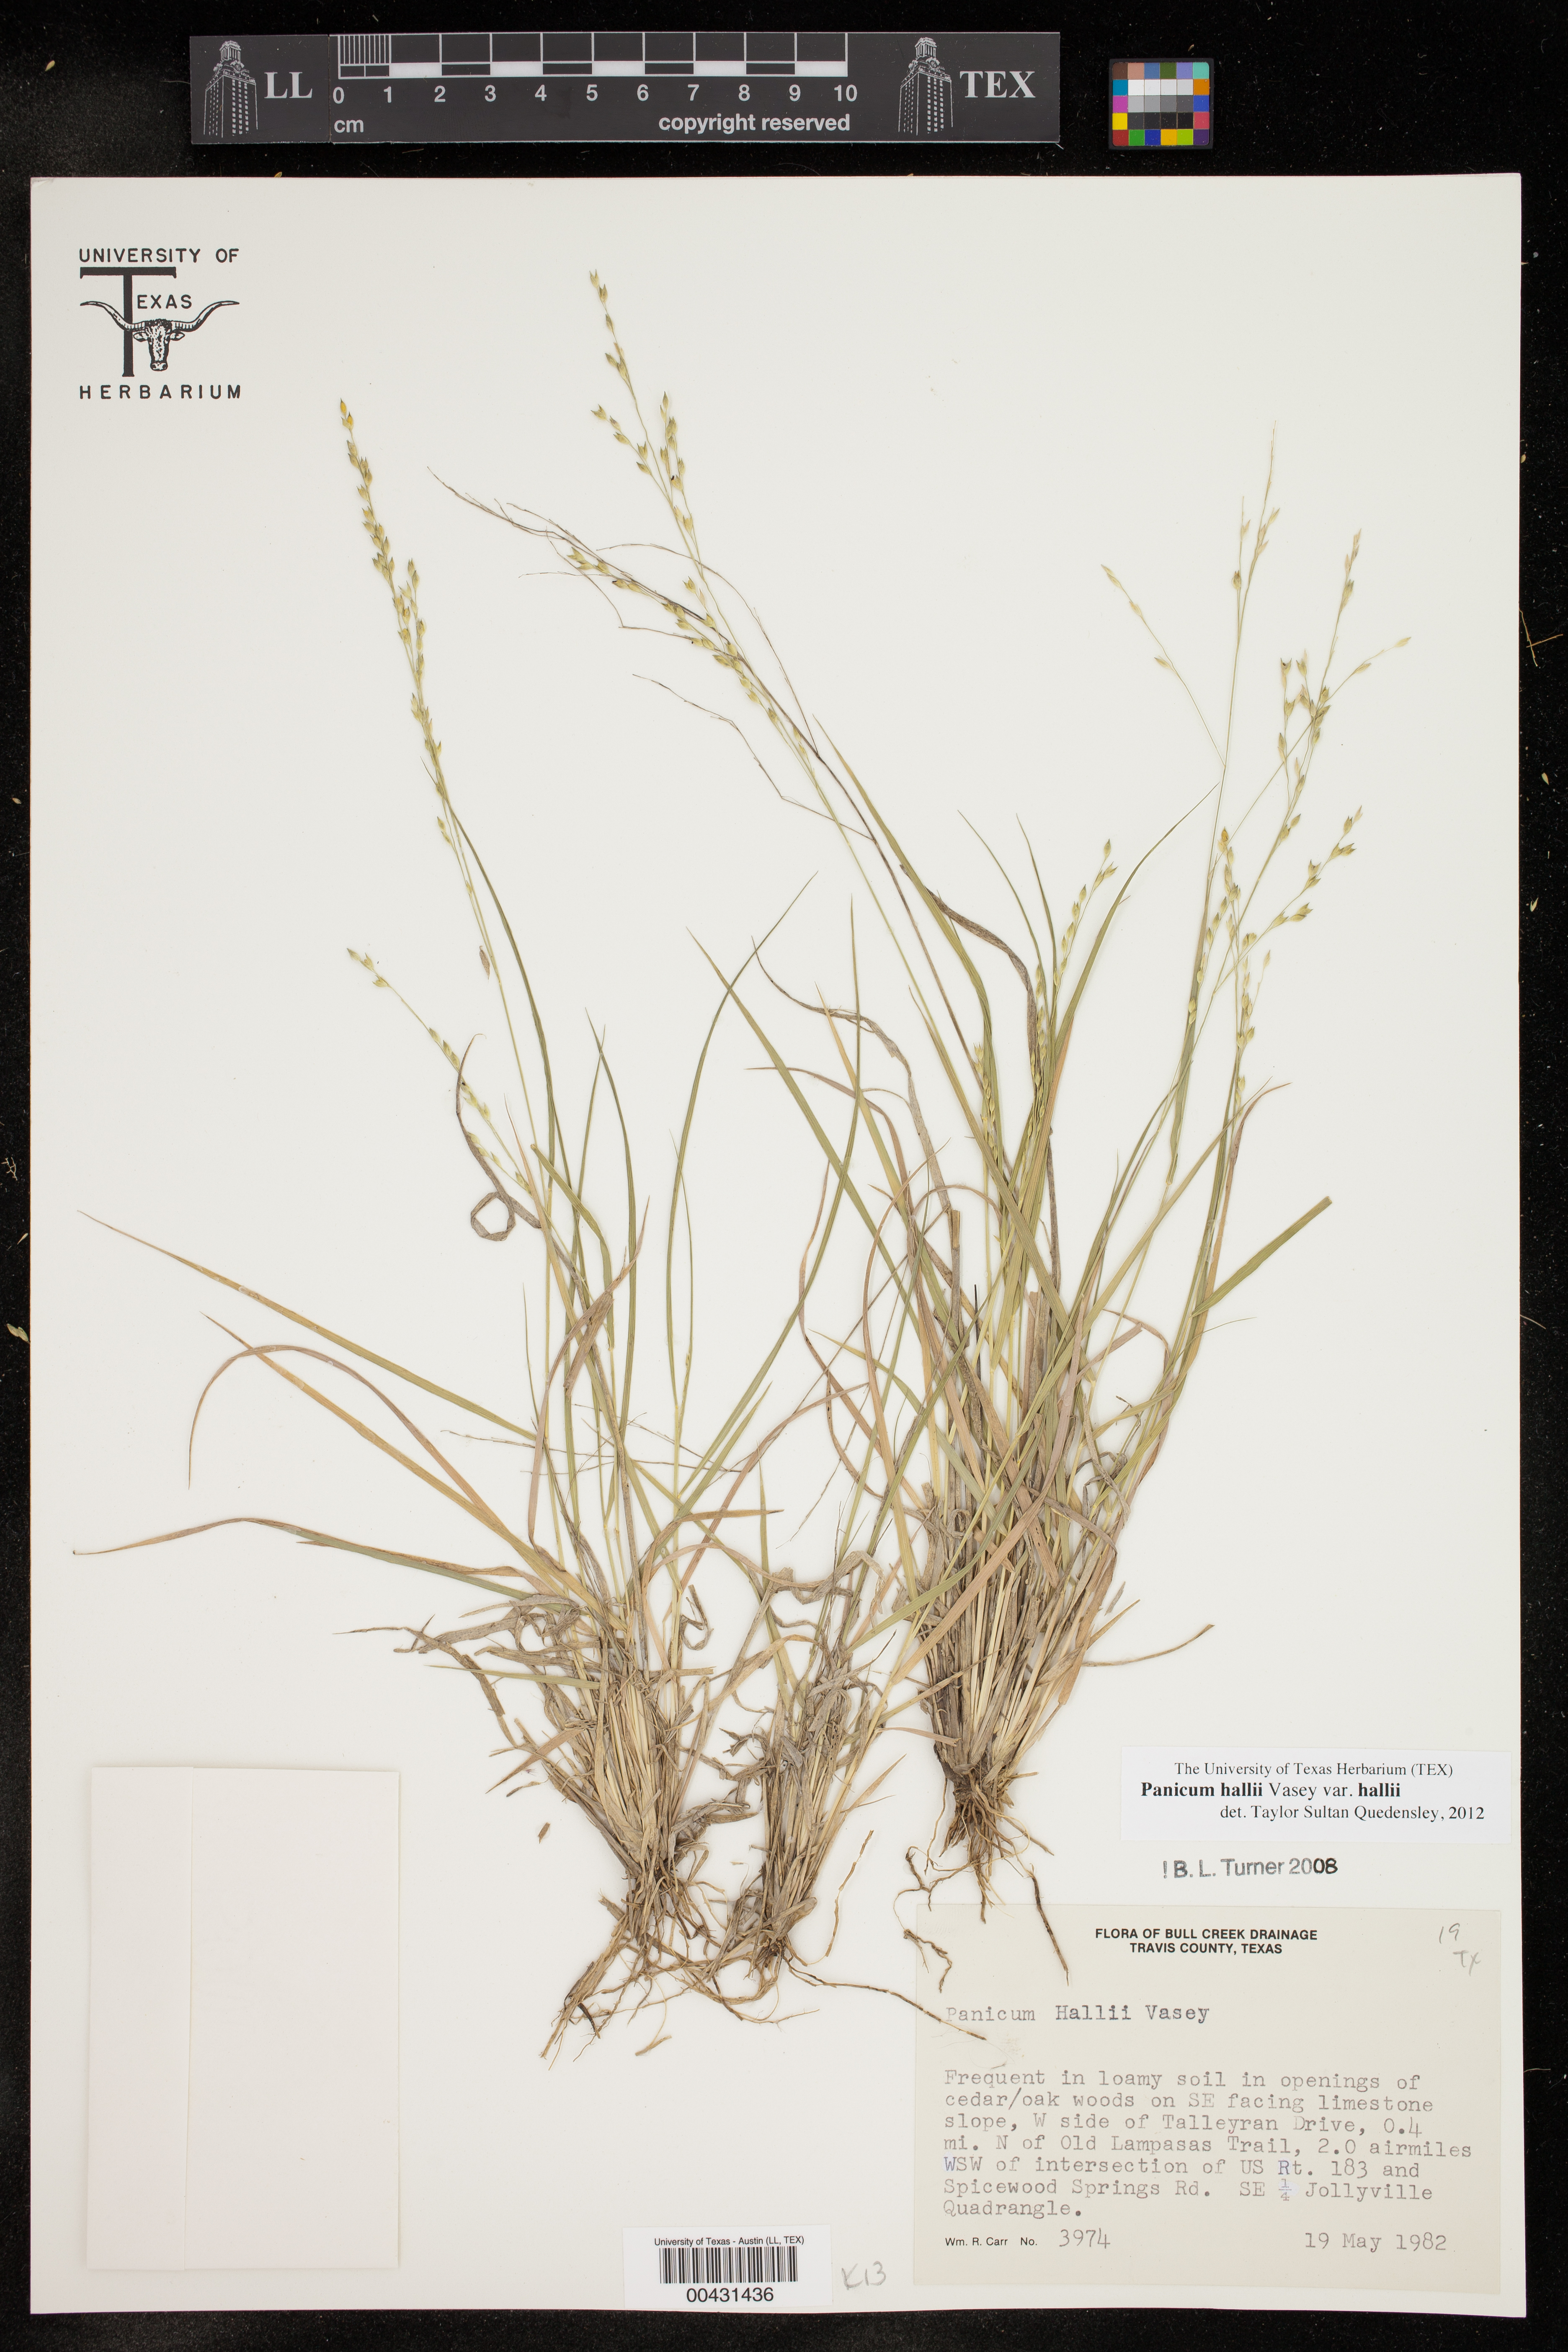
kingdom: Plantae
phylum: Tracheophyta
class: Liliopsida
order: Poales
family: Poaceae
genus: Panicum
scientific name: Panicum hallii
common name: Hall's witchgrass
